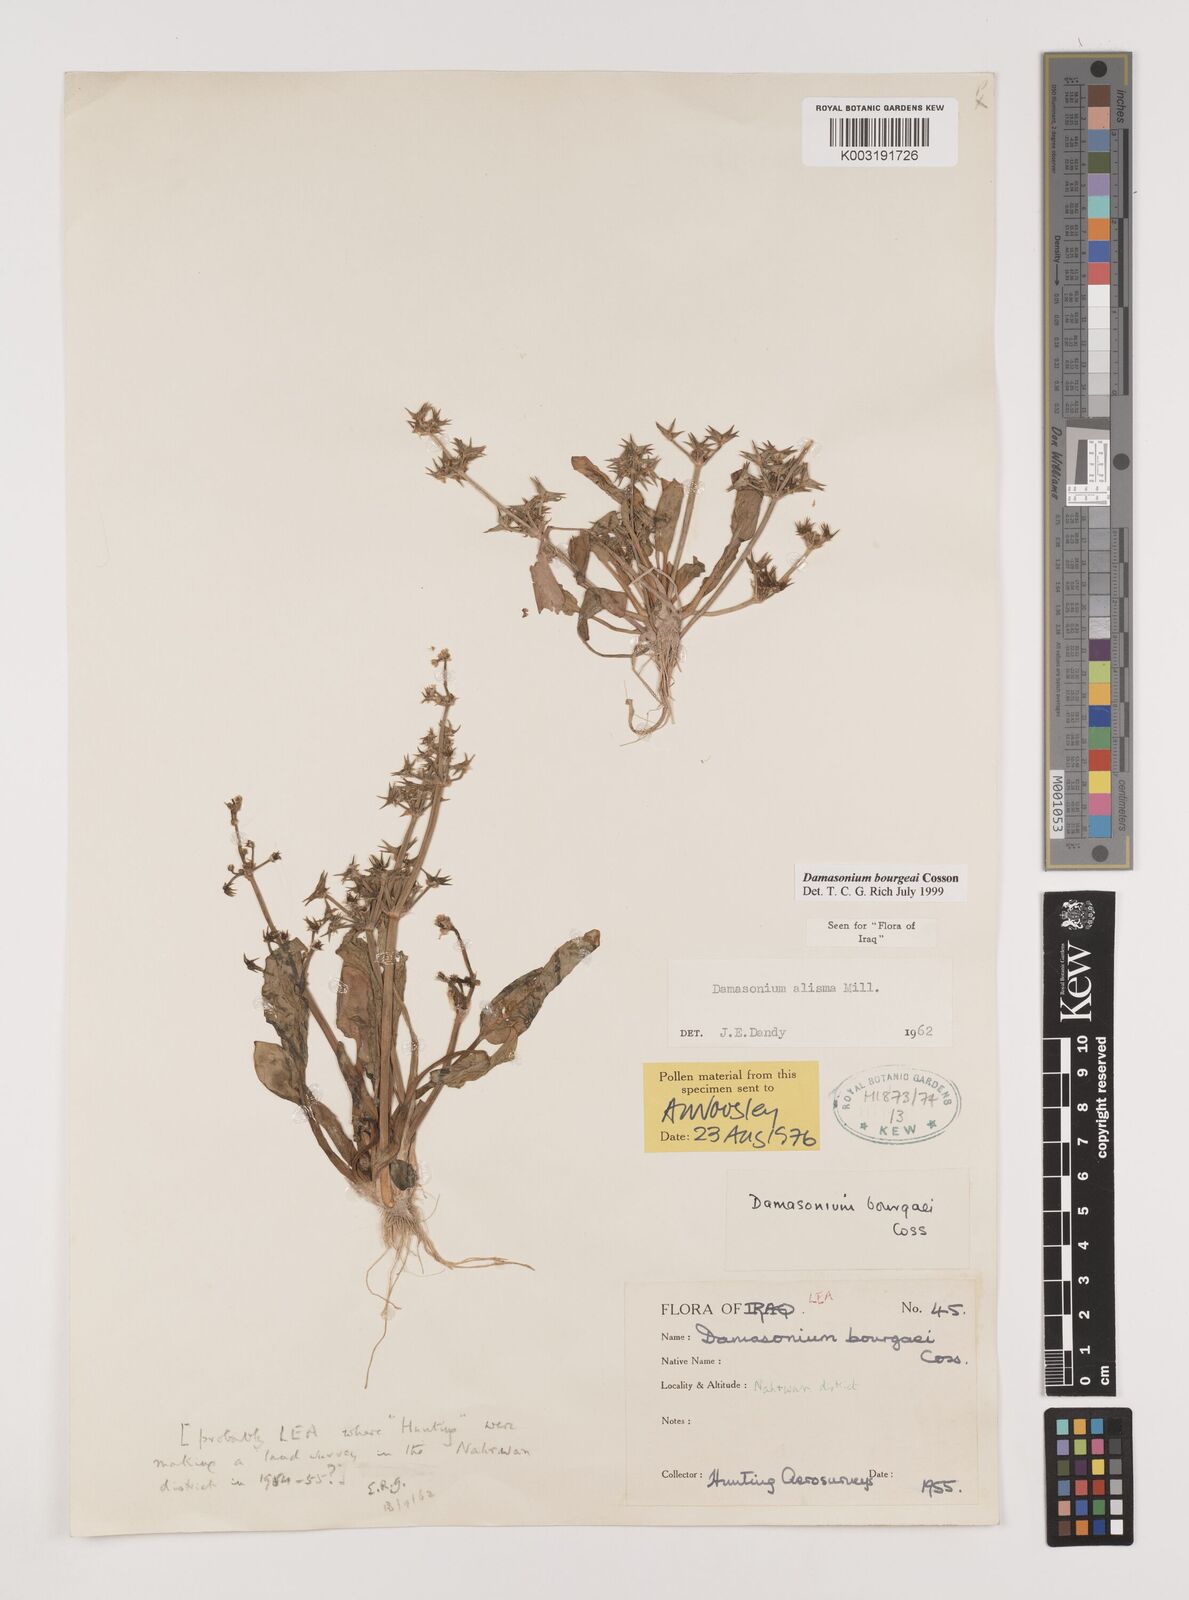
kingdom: Plantae
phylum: Tracheophyta
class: Liliopsida
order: Alismatales
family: Alismataceae
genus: Damasonium
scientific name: Damasonium alisma
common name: Starfruit
